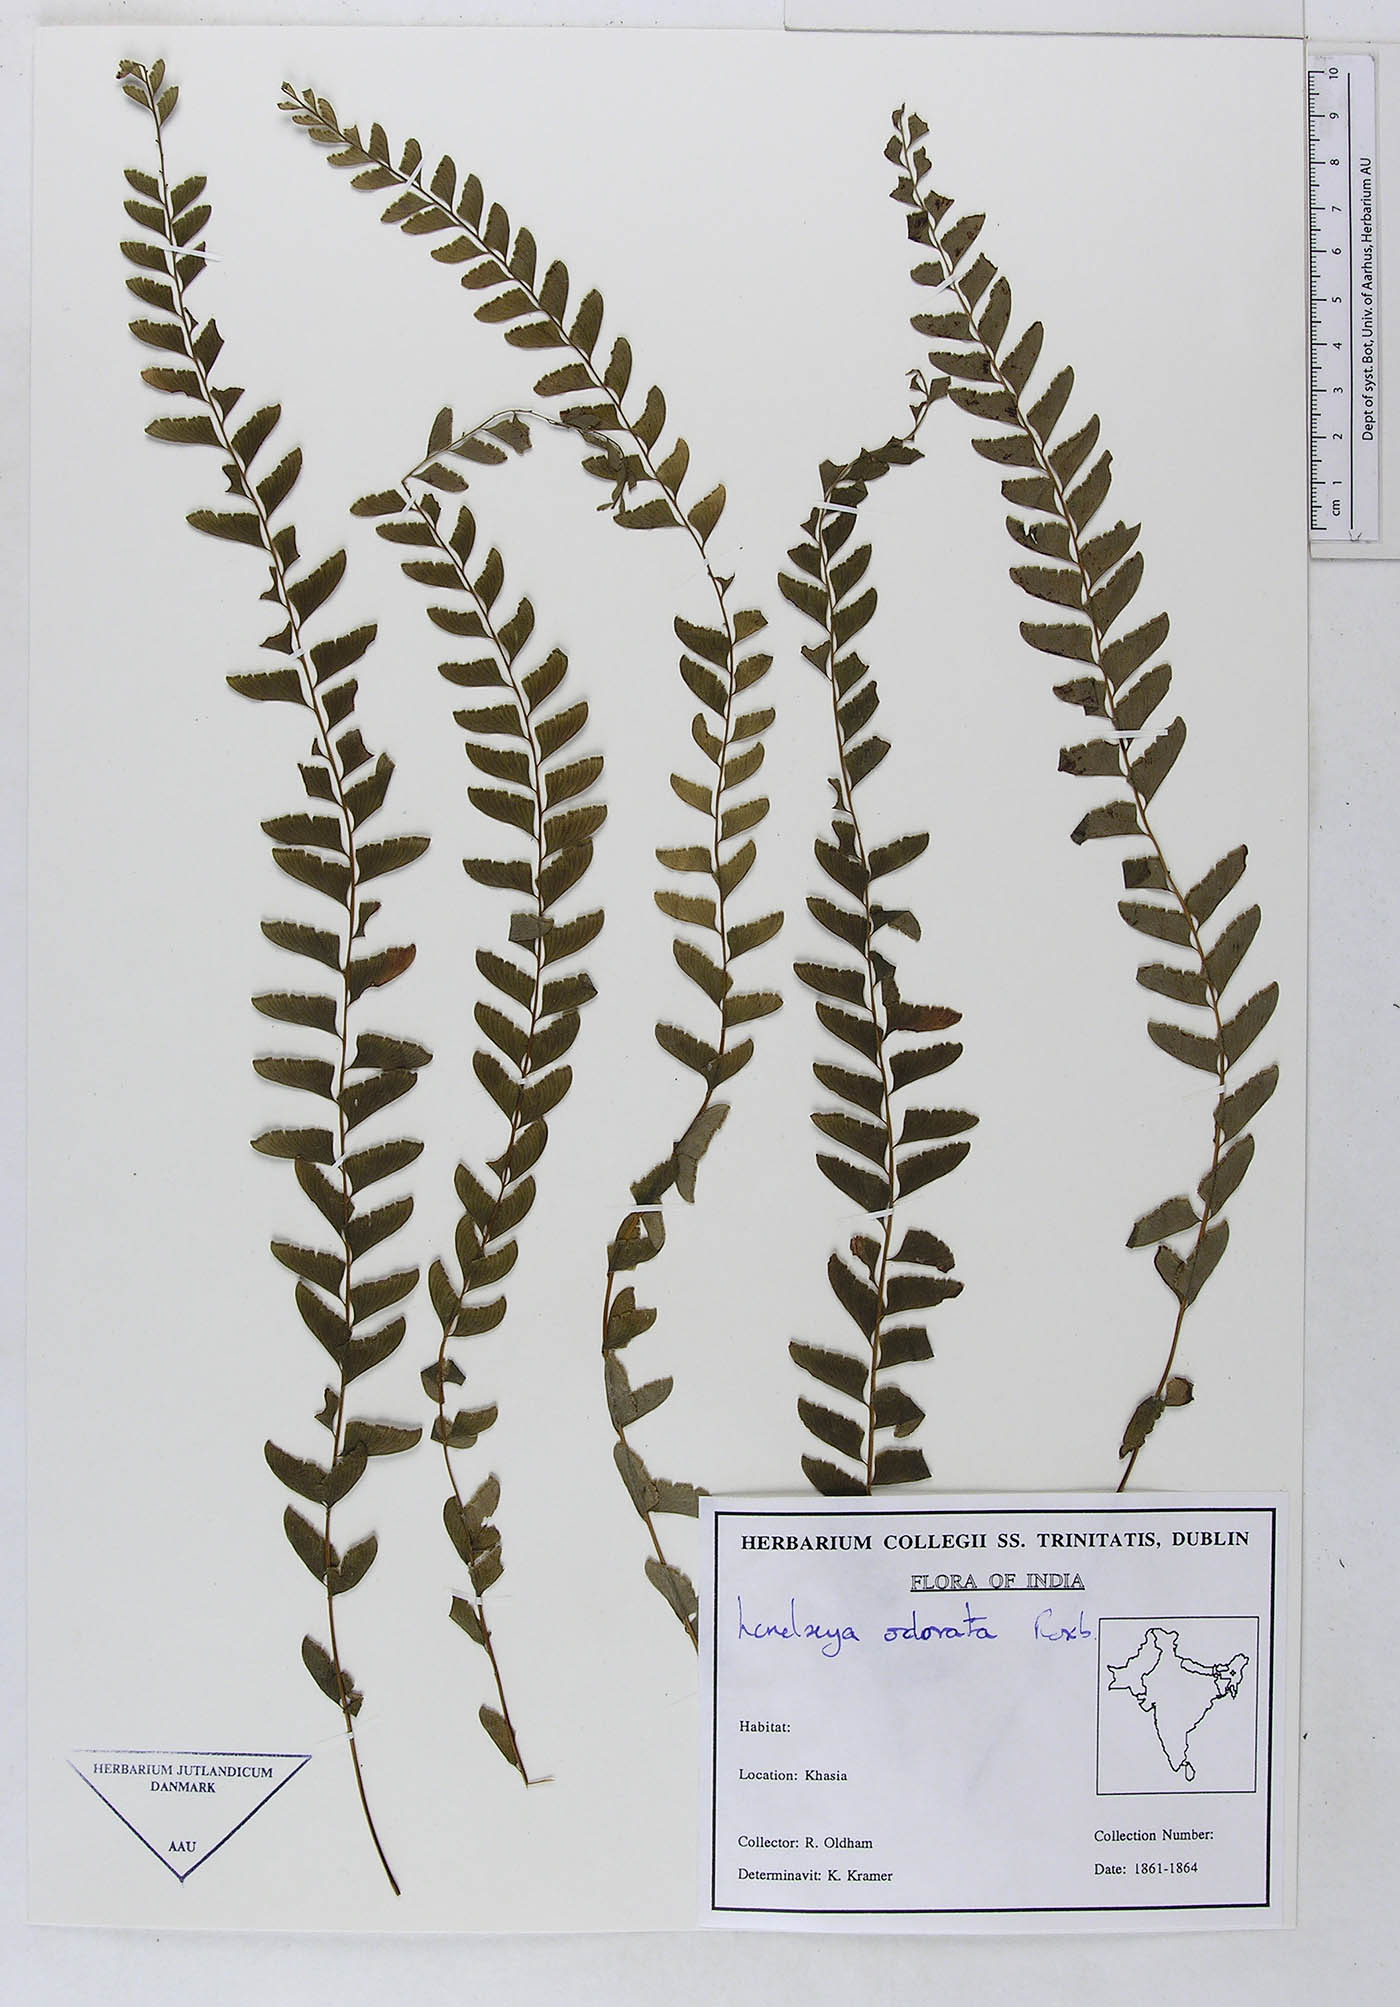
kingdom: Plantae
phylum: Tracheophyta
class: Polypodiopsida
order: Polypodiales
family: Lindsaeaceae
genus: Osmolindsaea
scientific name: Osmolindsaea odorata
